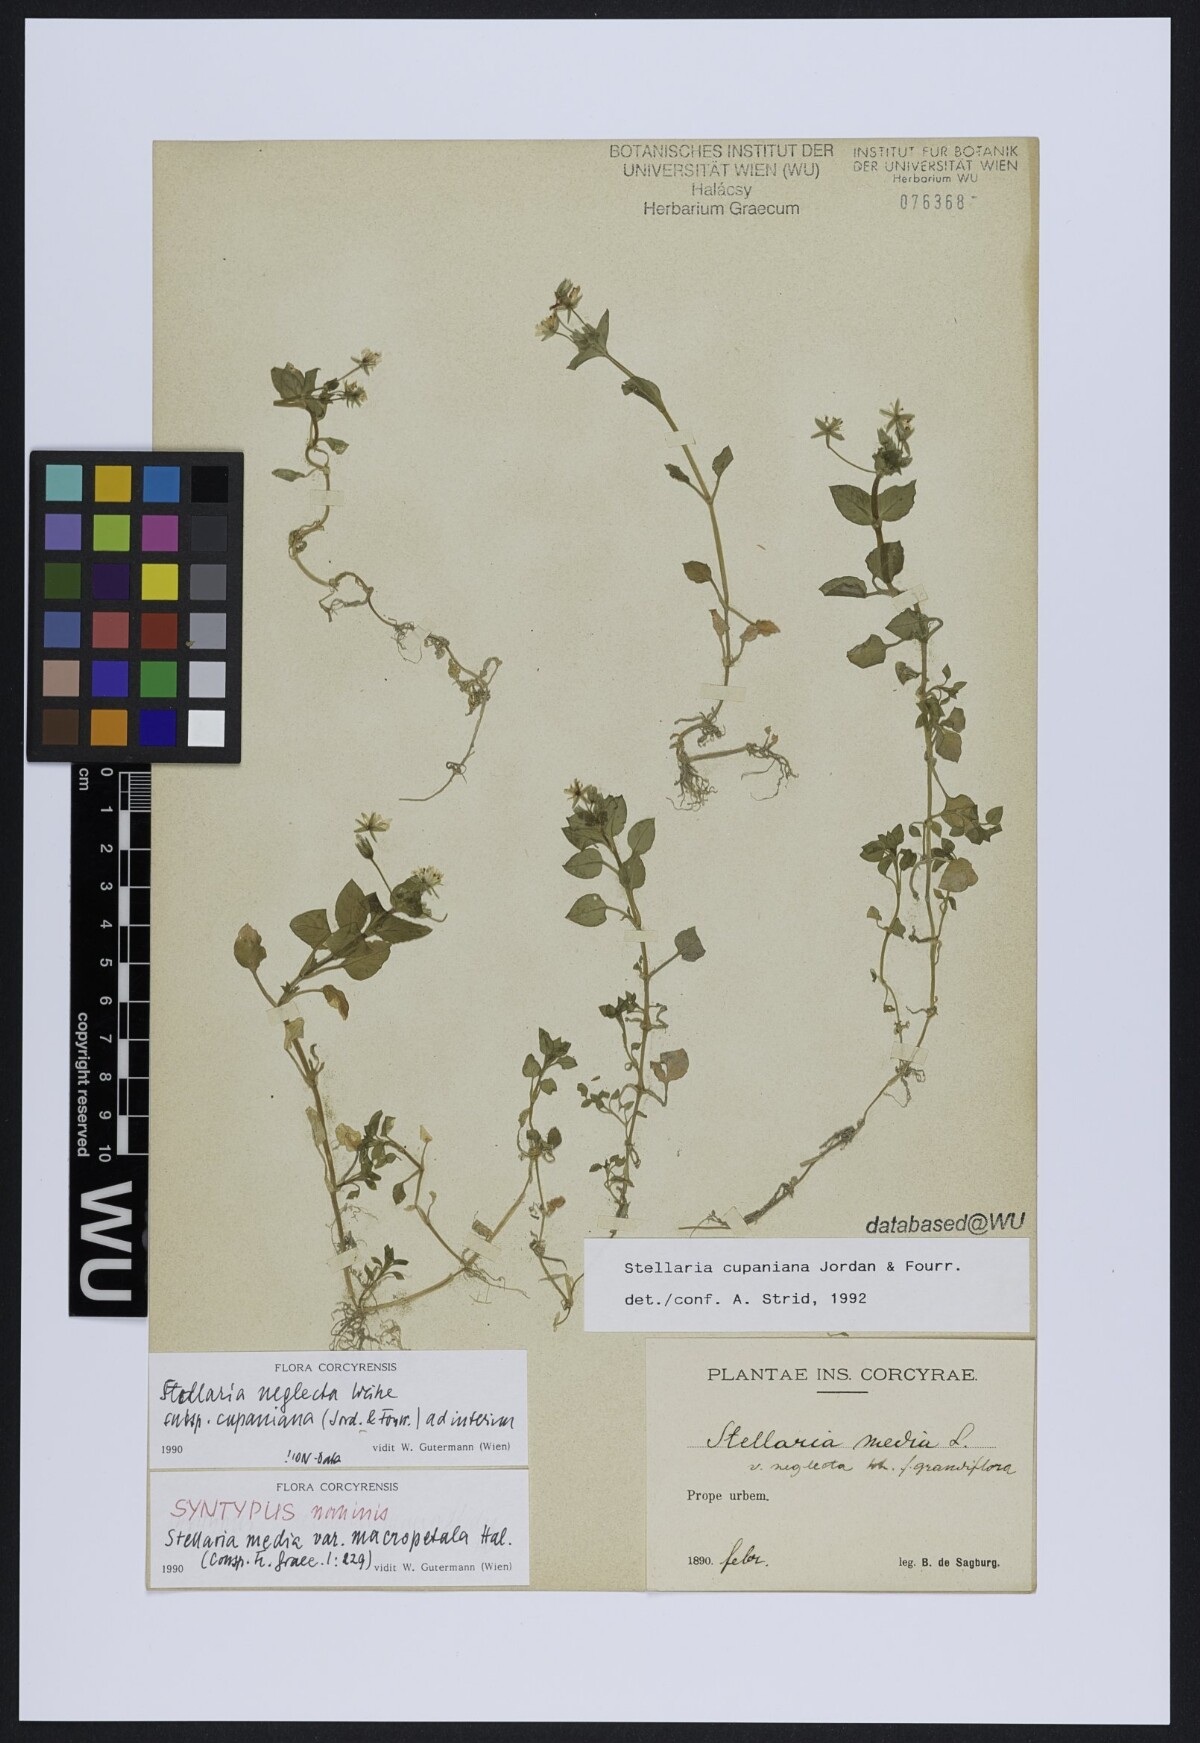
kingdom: Plantae
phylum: Tracheophyta
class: Magnoliopsida
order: Caryophyllales
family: Caryophyllaceae
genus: Stellaria
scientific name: Stellaria cupaniana
